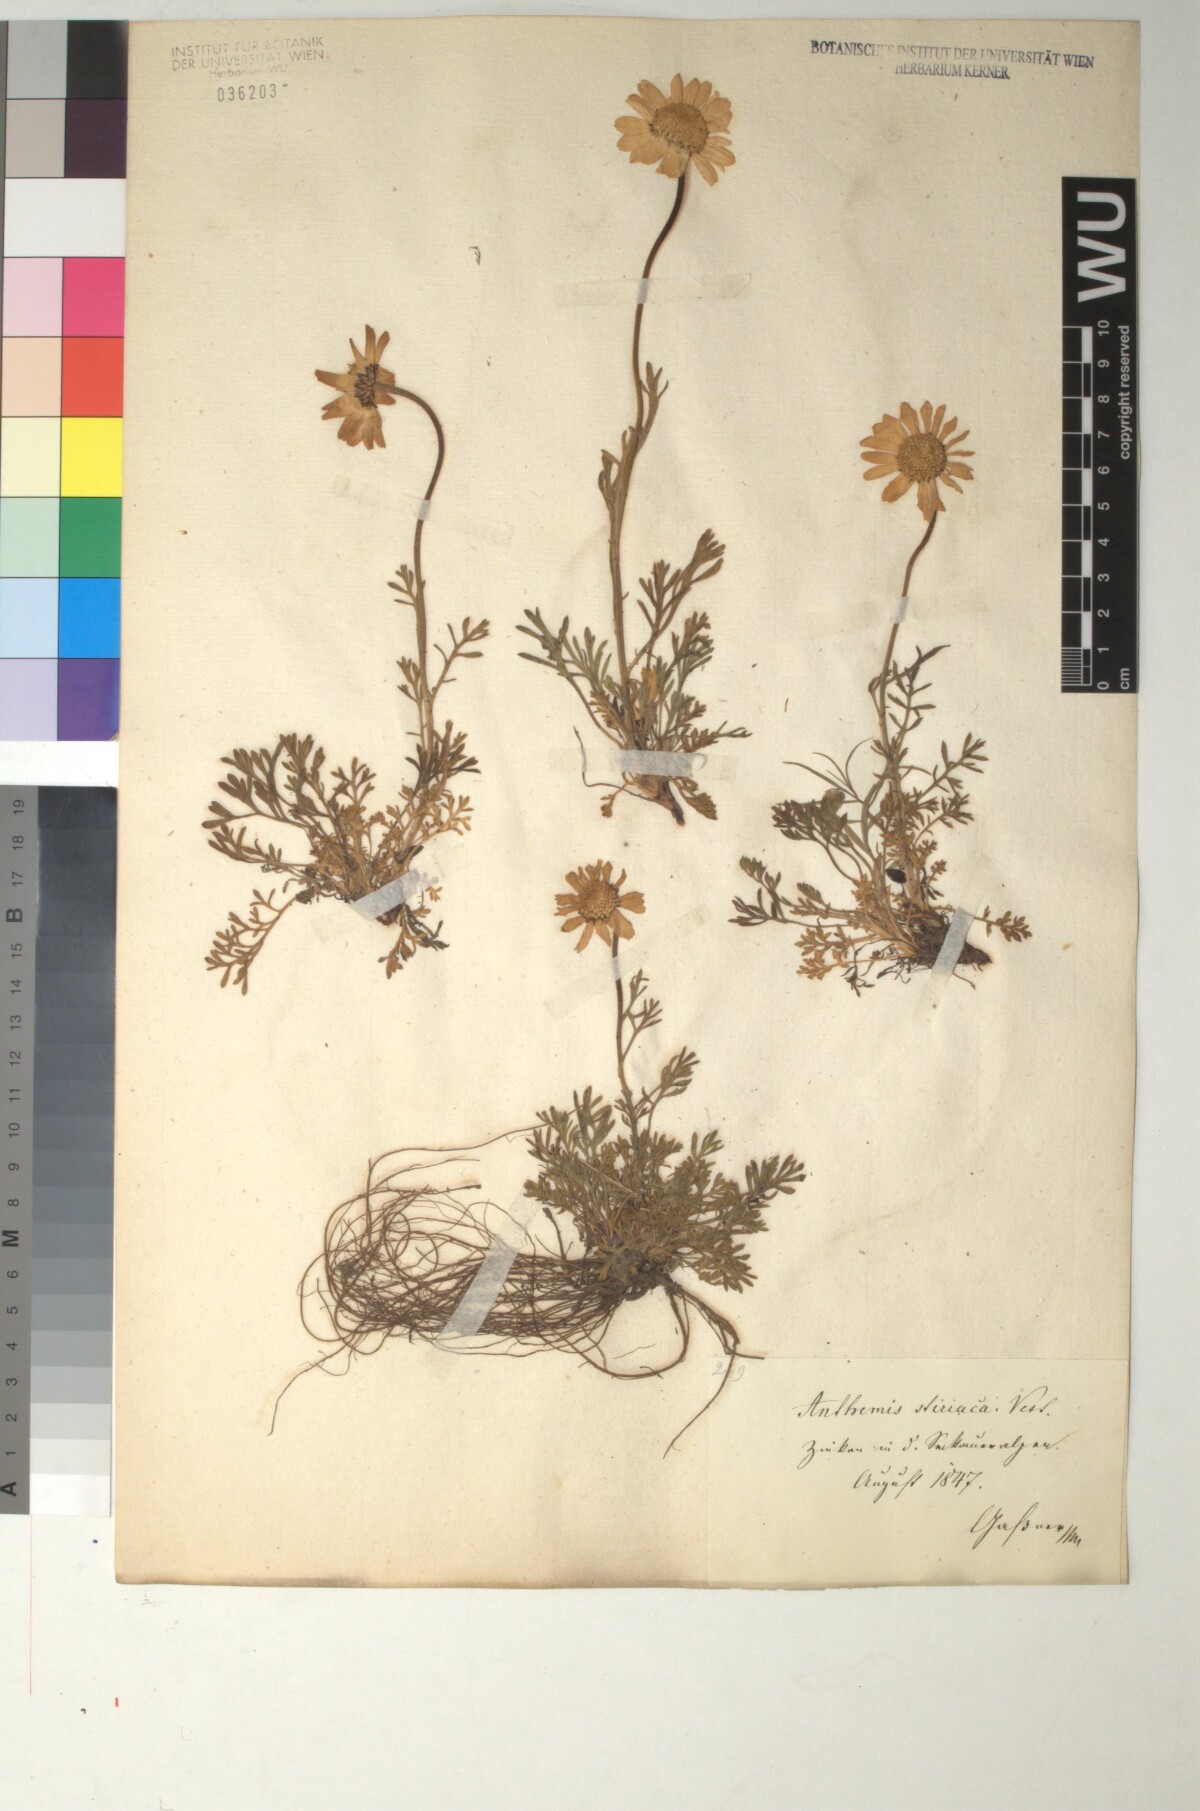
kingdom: Plantae
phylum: Tracheophyta
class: Magnoliopsida
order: Asterales
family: Asteraceae
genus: Anthemis
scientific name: Anthemis cretica
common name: Mountain dog-daisy
